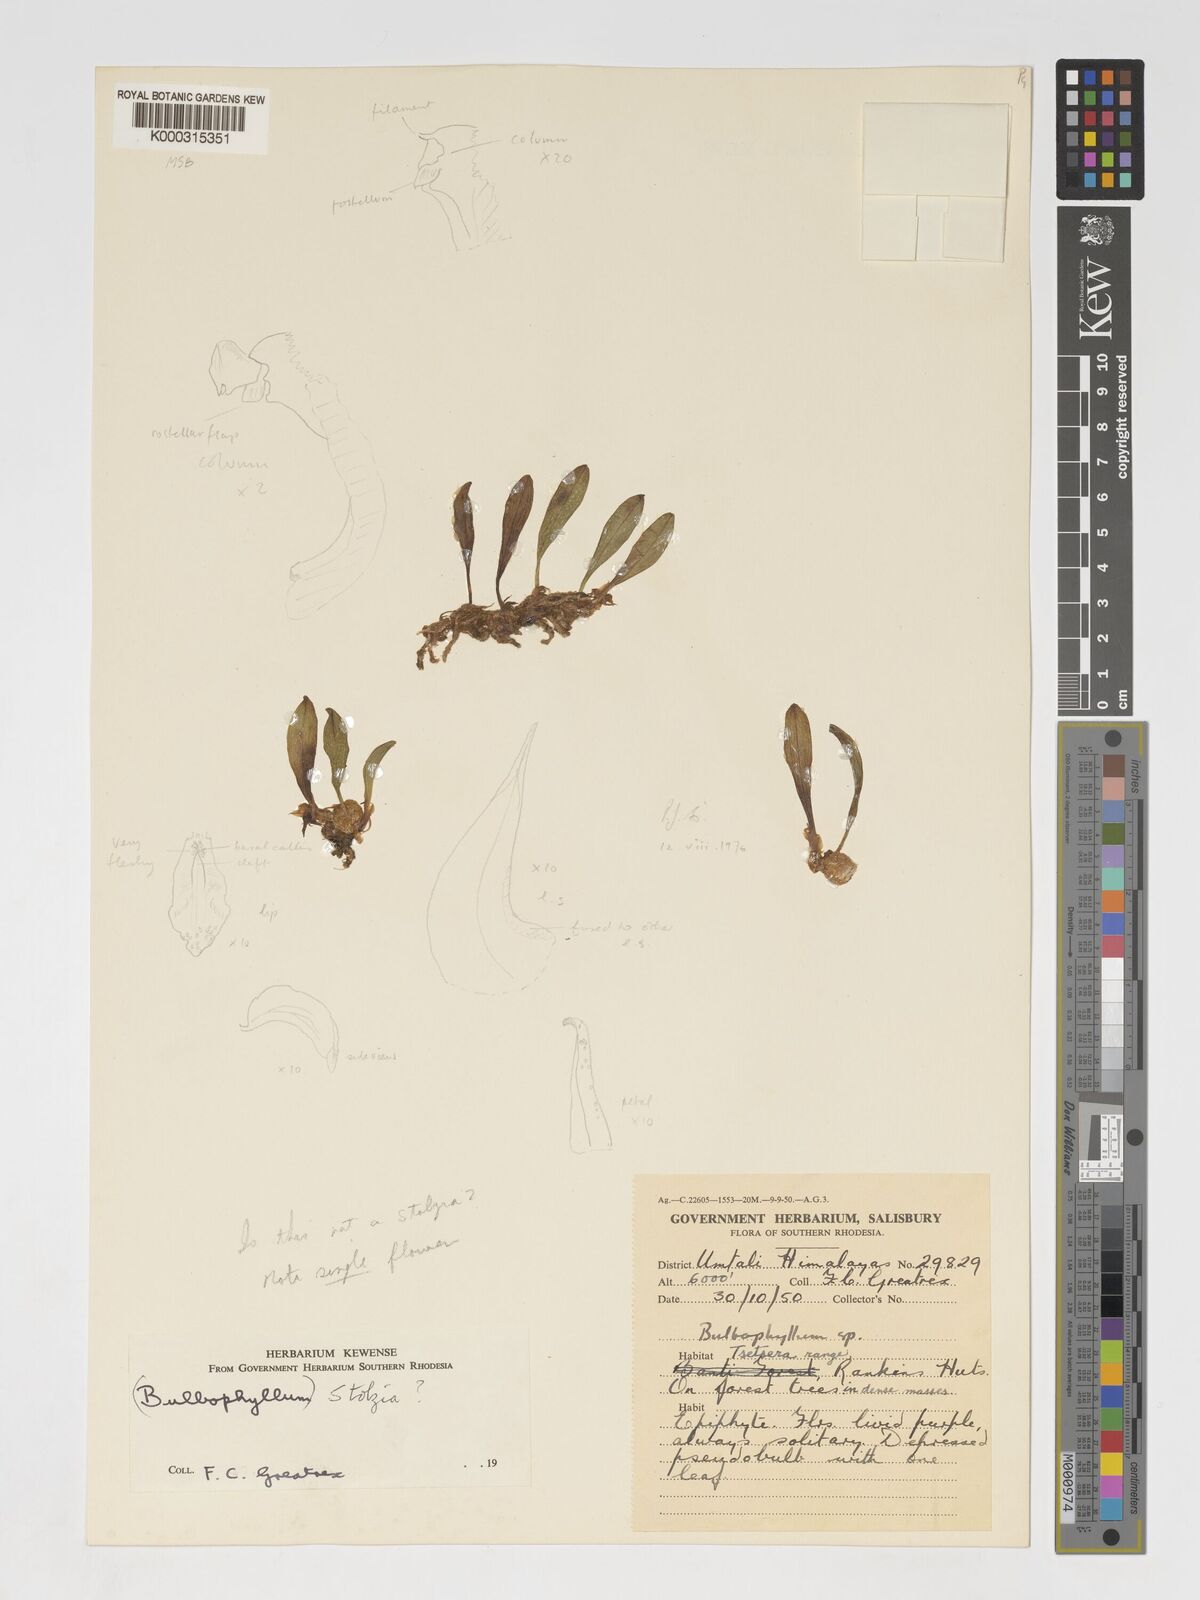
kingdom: Plantae
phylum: Tracheophyta
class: Liliopsida
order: Asparagales
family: Orchidaceae
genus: Porpax
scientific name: Porpax compacta
